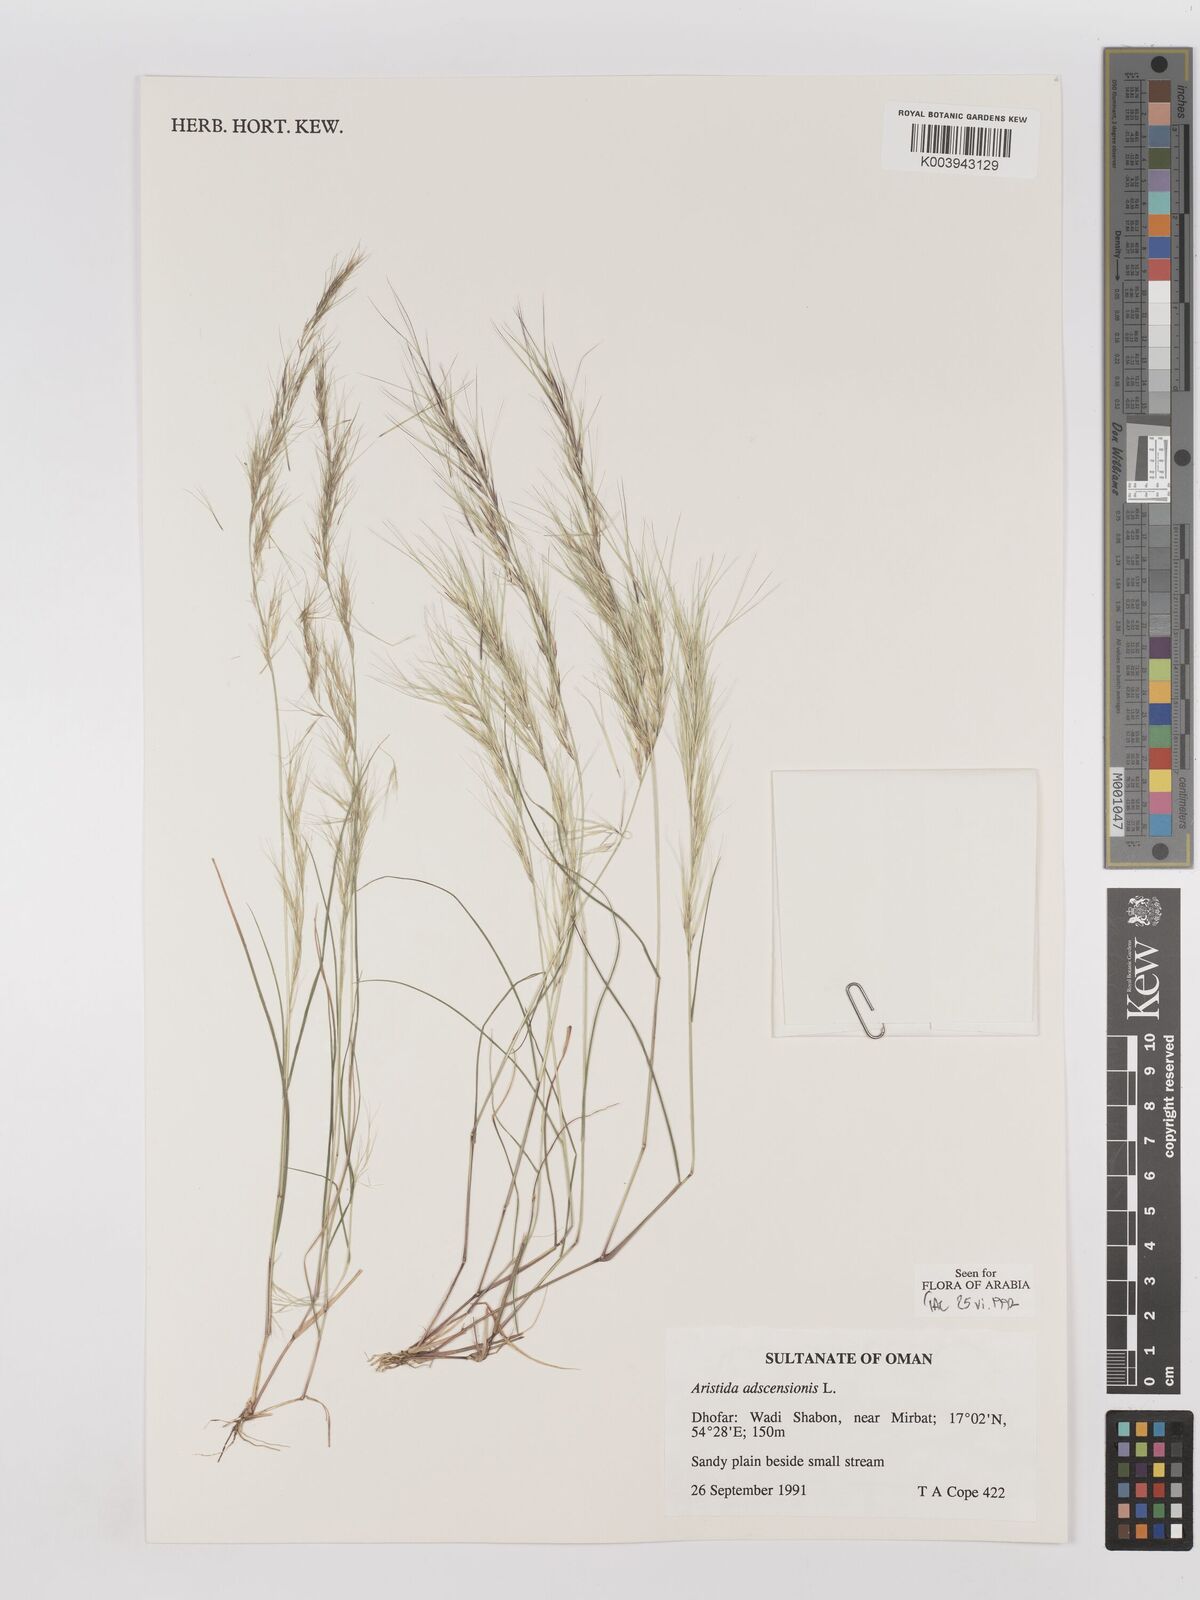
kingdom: Plantae
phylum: Tracheophyta
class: Liliopsida
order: Poales
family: Poaceae
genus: Aristida
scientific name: Aristida adscensionis
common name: Sixweeks threeawn
